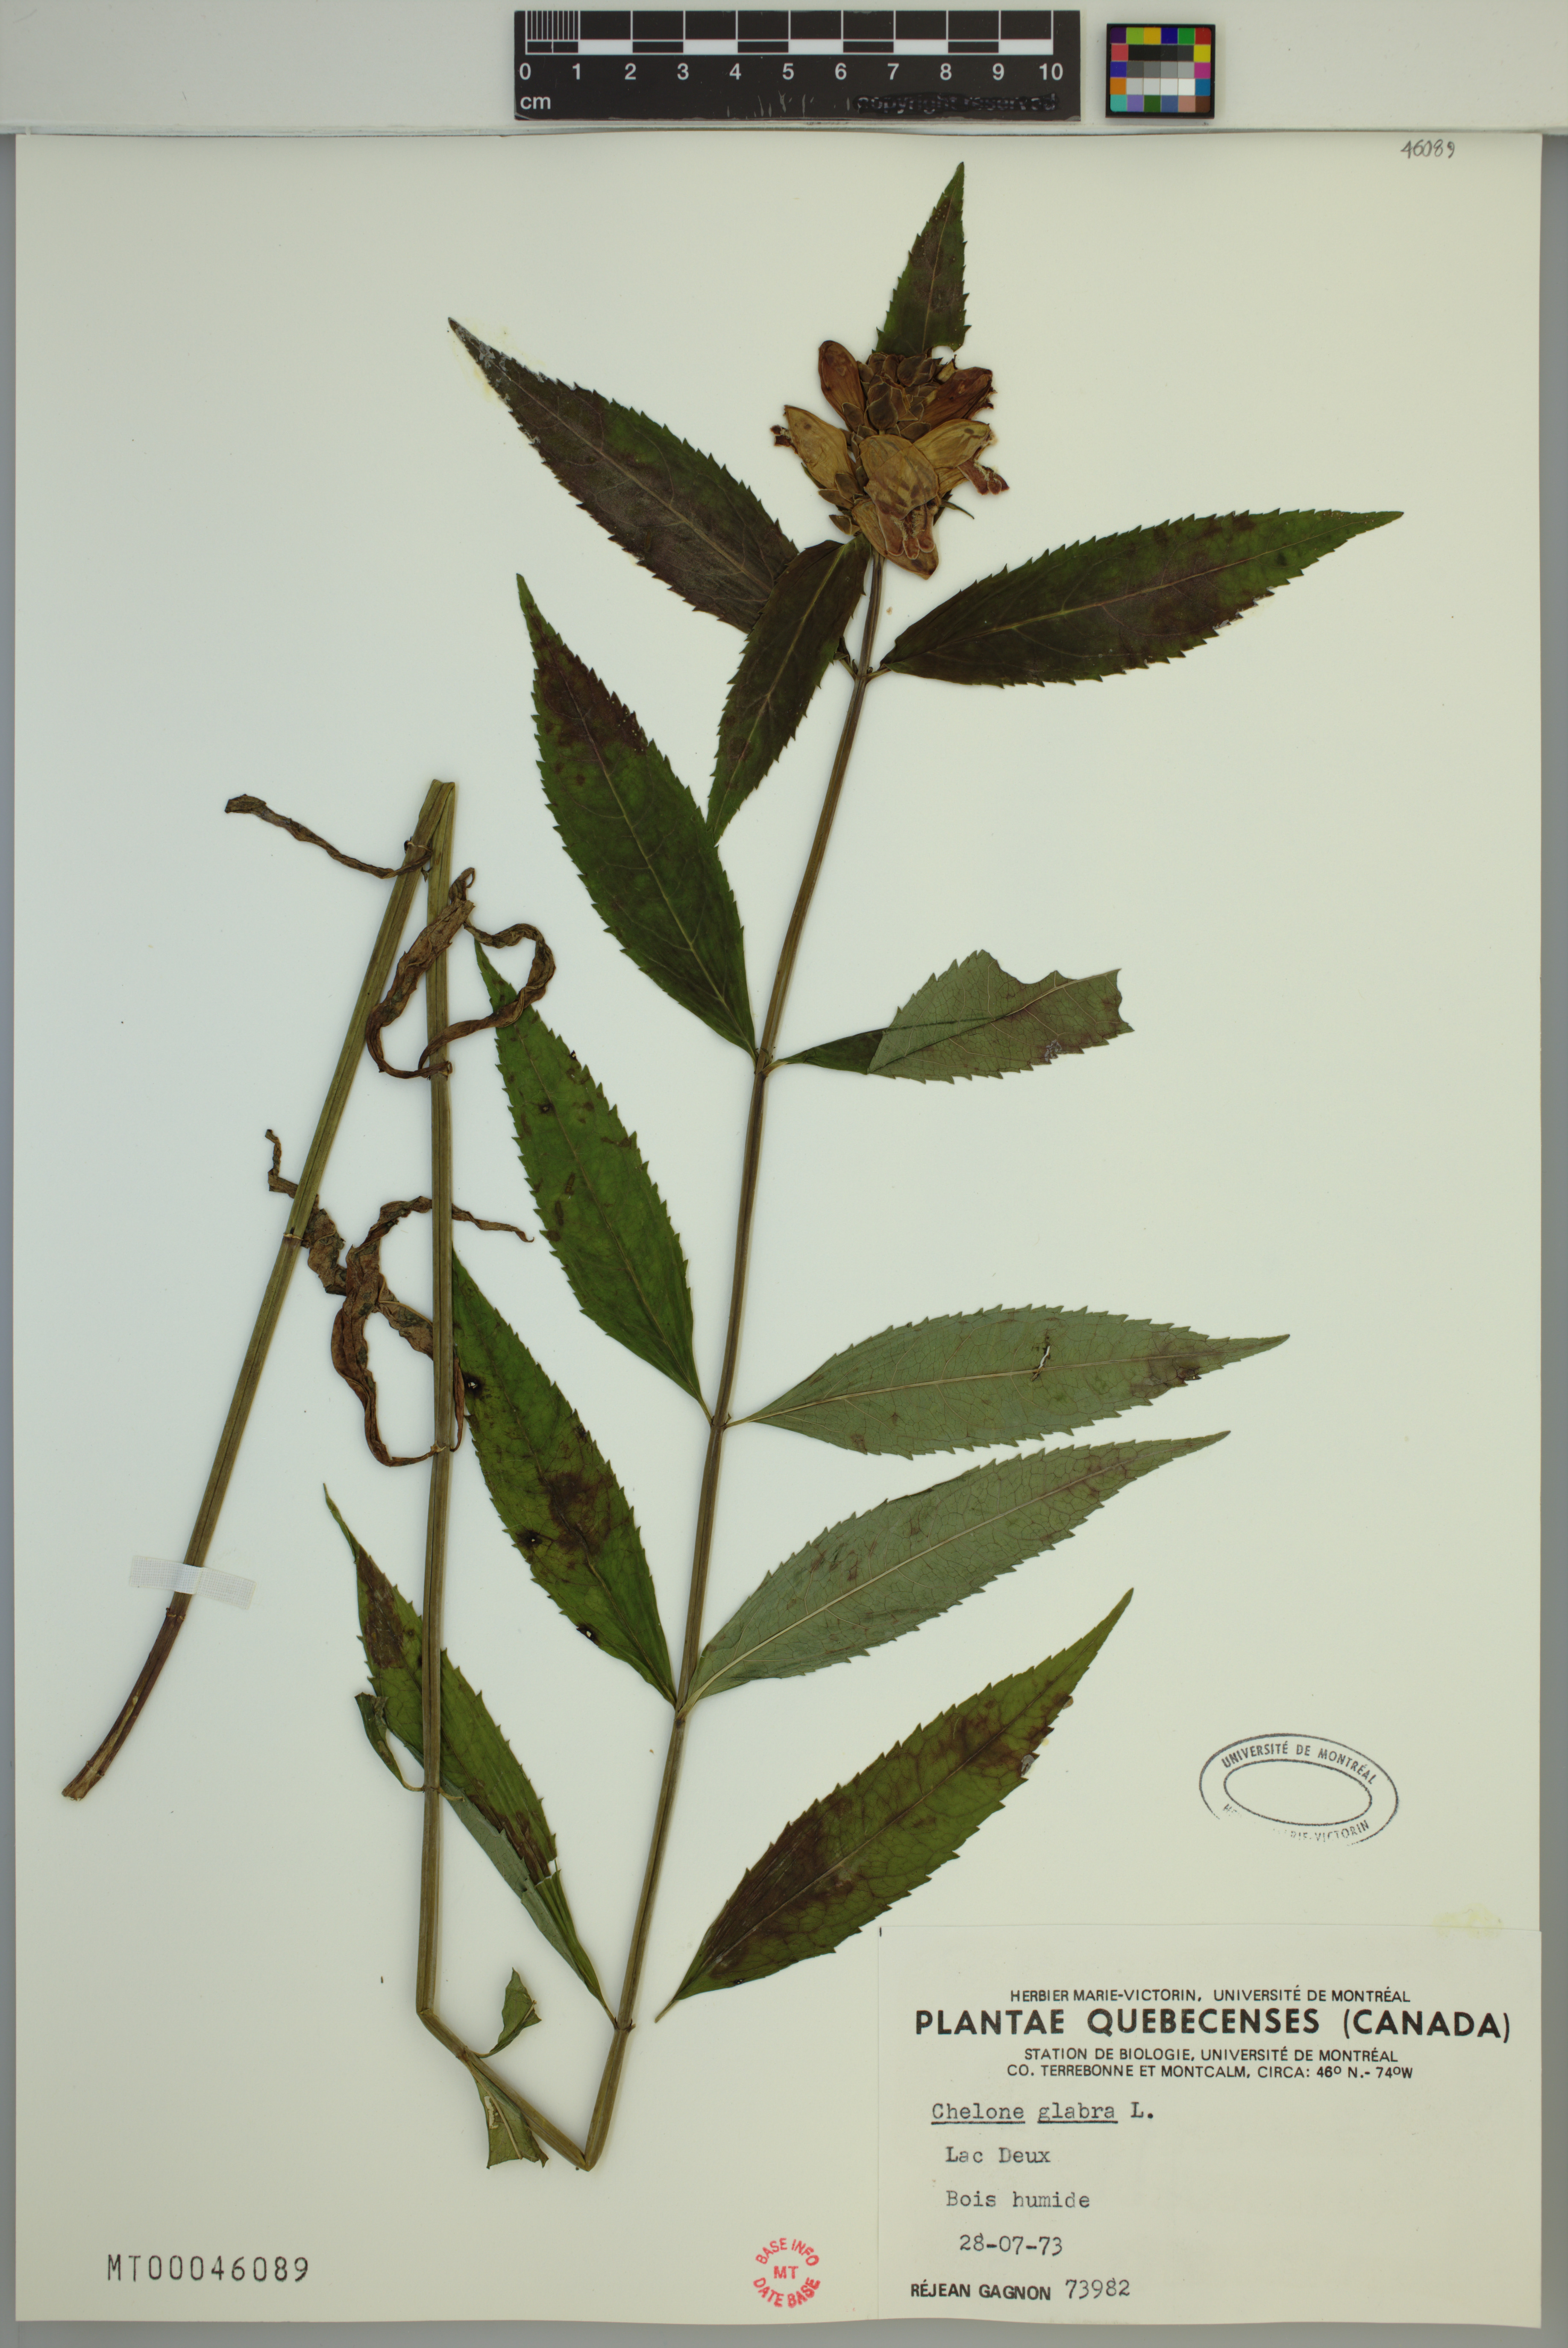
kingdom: Plantae
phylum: Tracheophyta
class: Magnoliopsida
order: Lamiales
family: Plantaginaceae
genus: Chelone
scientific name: Chelone glabra
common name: Snakehead
